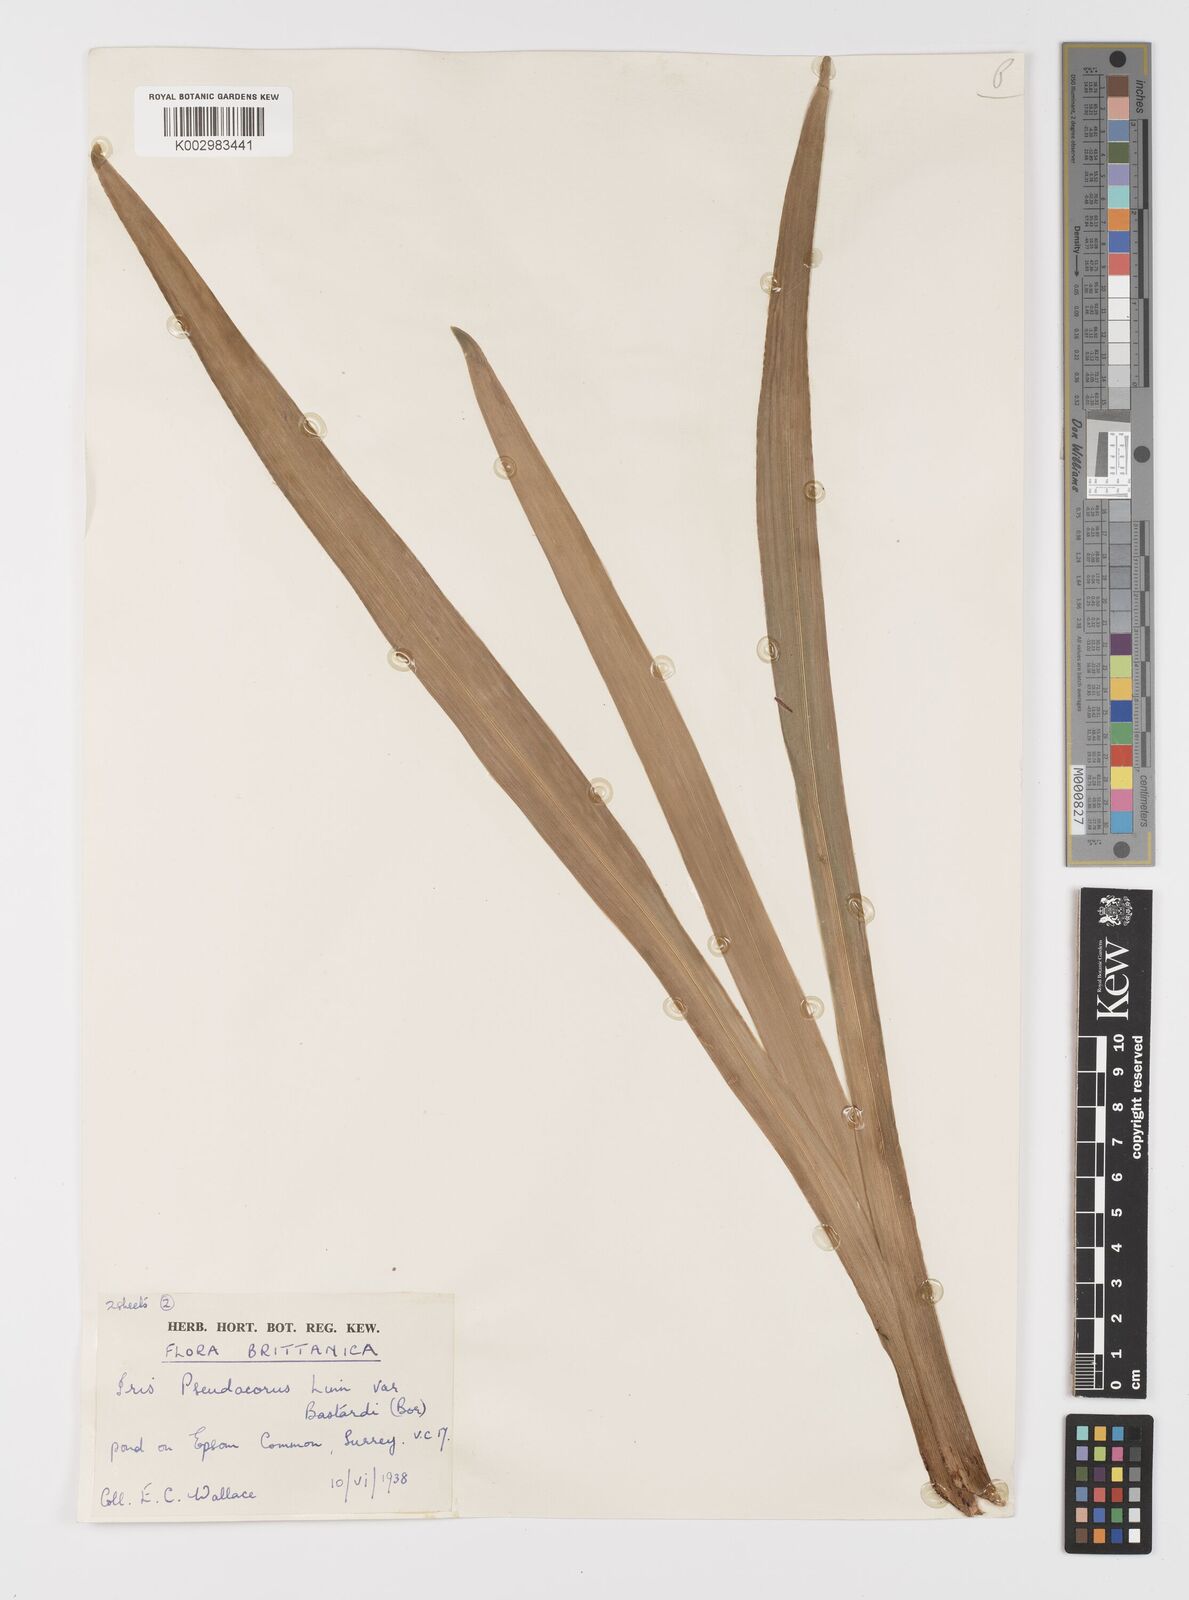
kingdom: Plantae
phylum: Tracheophyta
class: Liliopsida
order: Asparagales
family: Iridaceae
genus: Iris
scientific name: Iris pseudacorus
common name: Yellow flag
